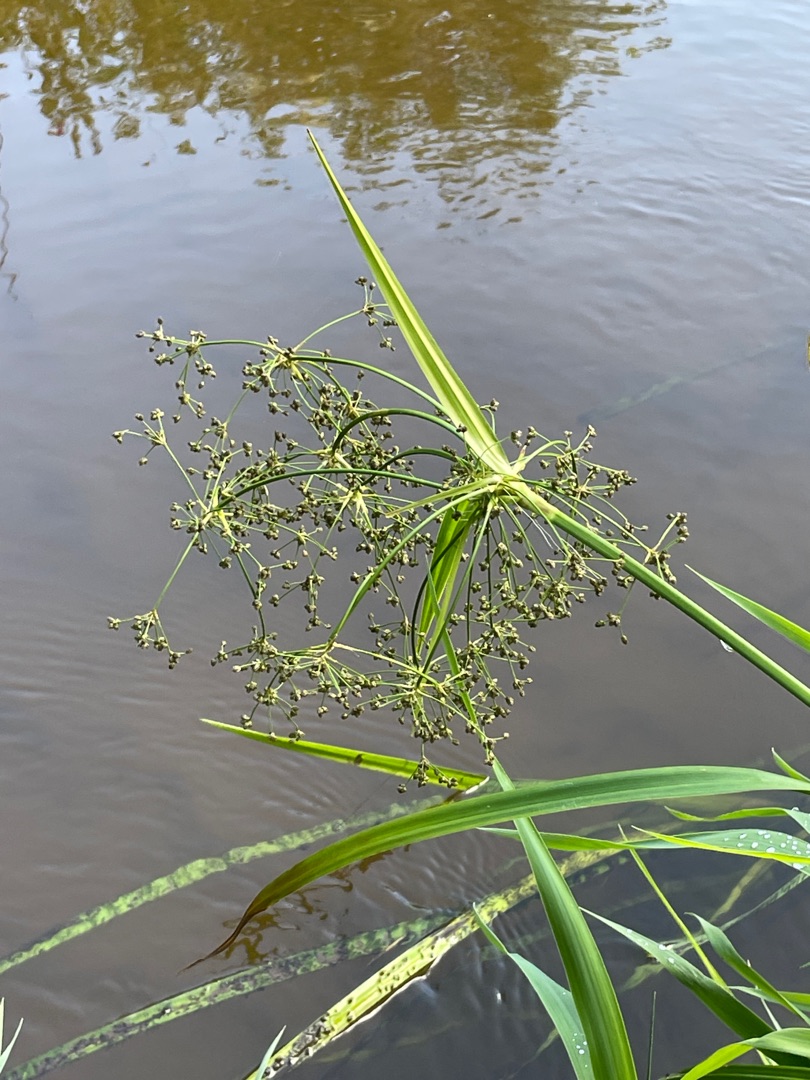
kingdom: Plantae
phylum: Tracheophyta
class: Liliopsida
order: Poales
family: Cyperaceae
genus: Scirpus
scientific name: Scirpus sylvaticus
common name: Skov-kogleaks
